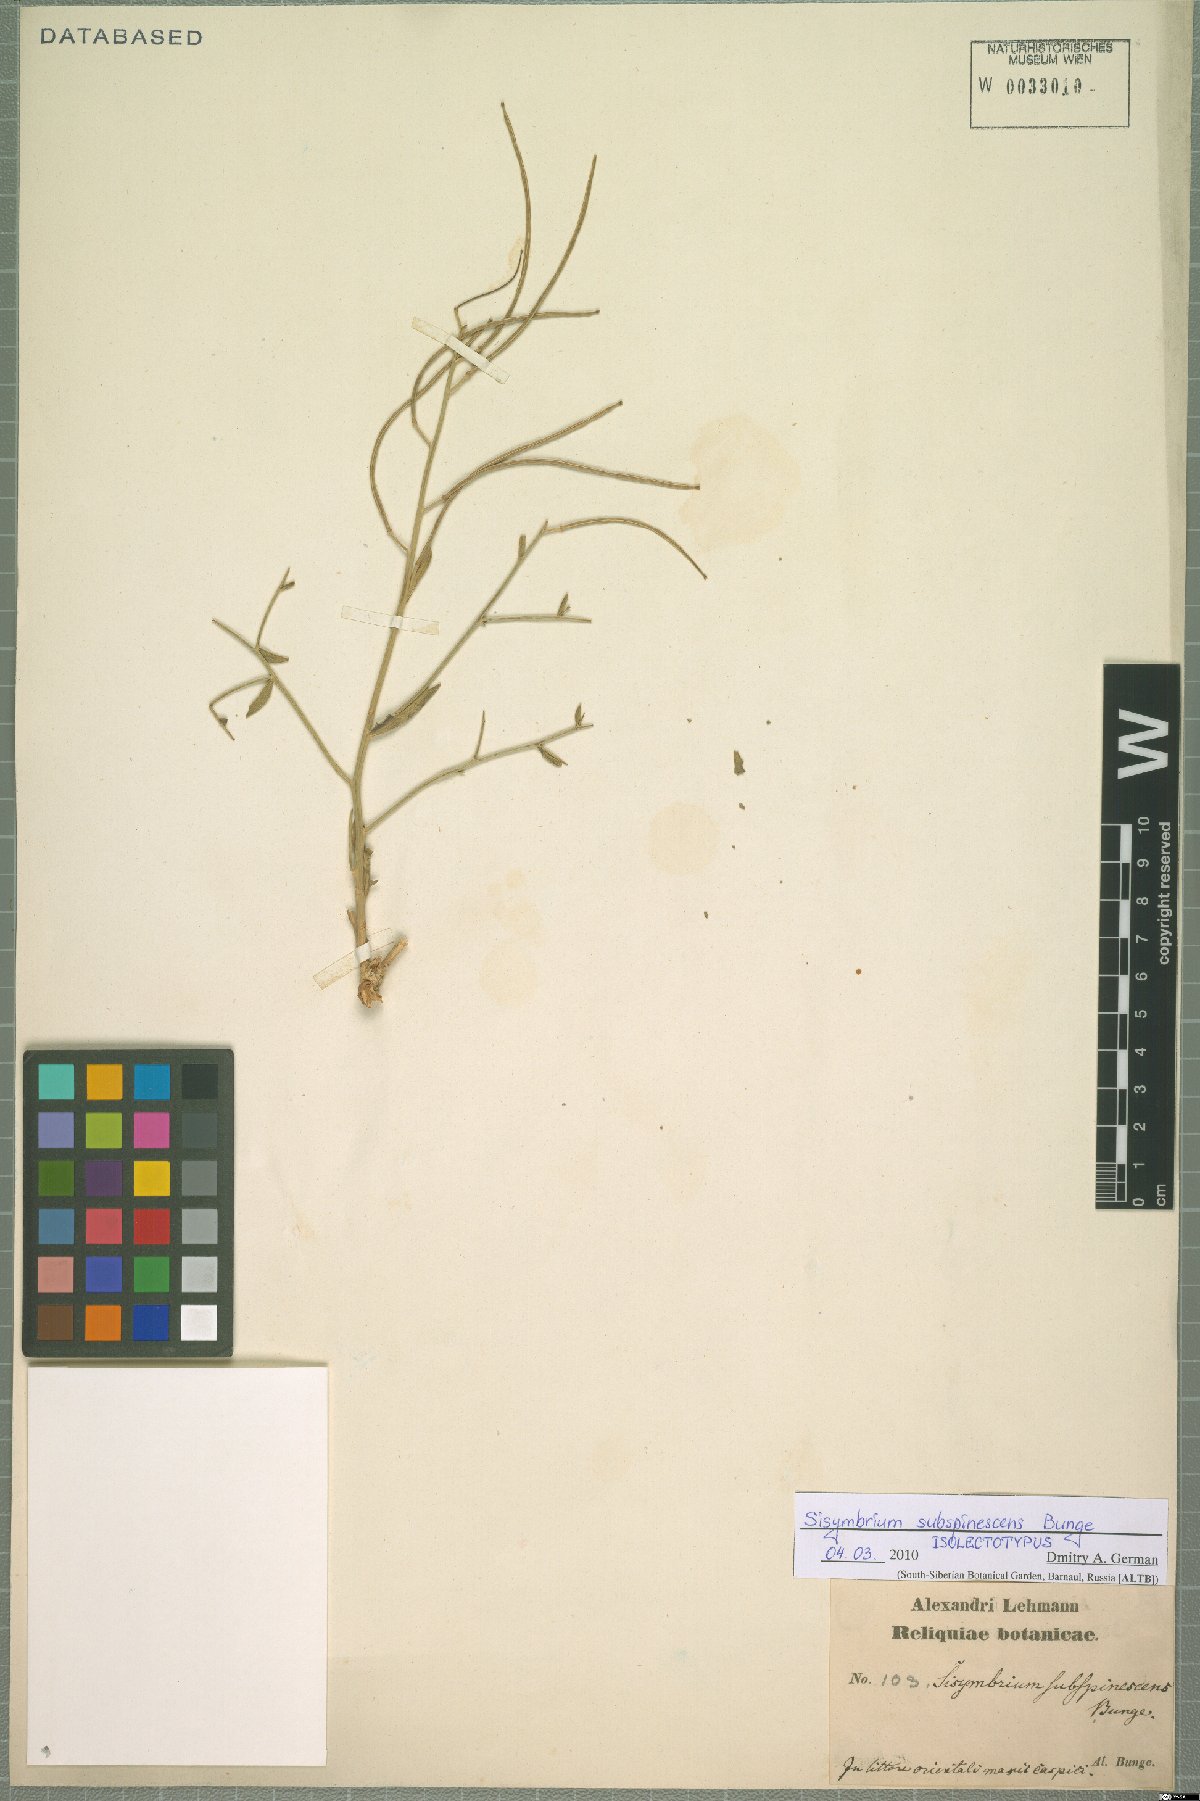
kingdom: Plantae
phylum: Tracheophyta
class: Magnoliopsida
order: Brassicales
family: Brassicaceae
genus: Sisymbrium
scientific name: Sisymbrium subspinescens
